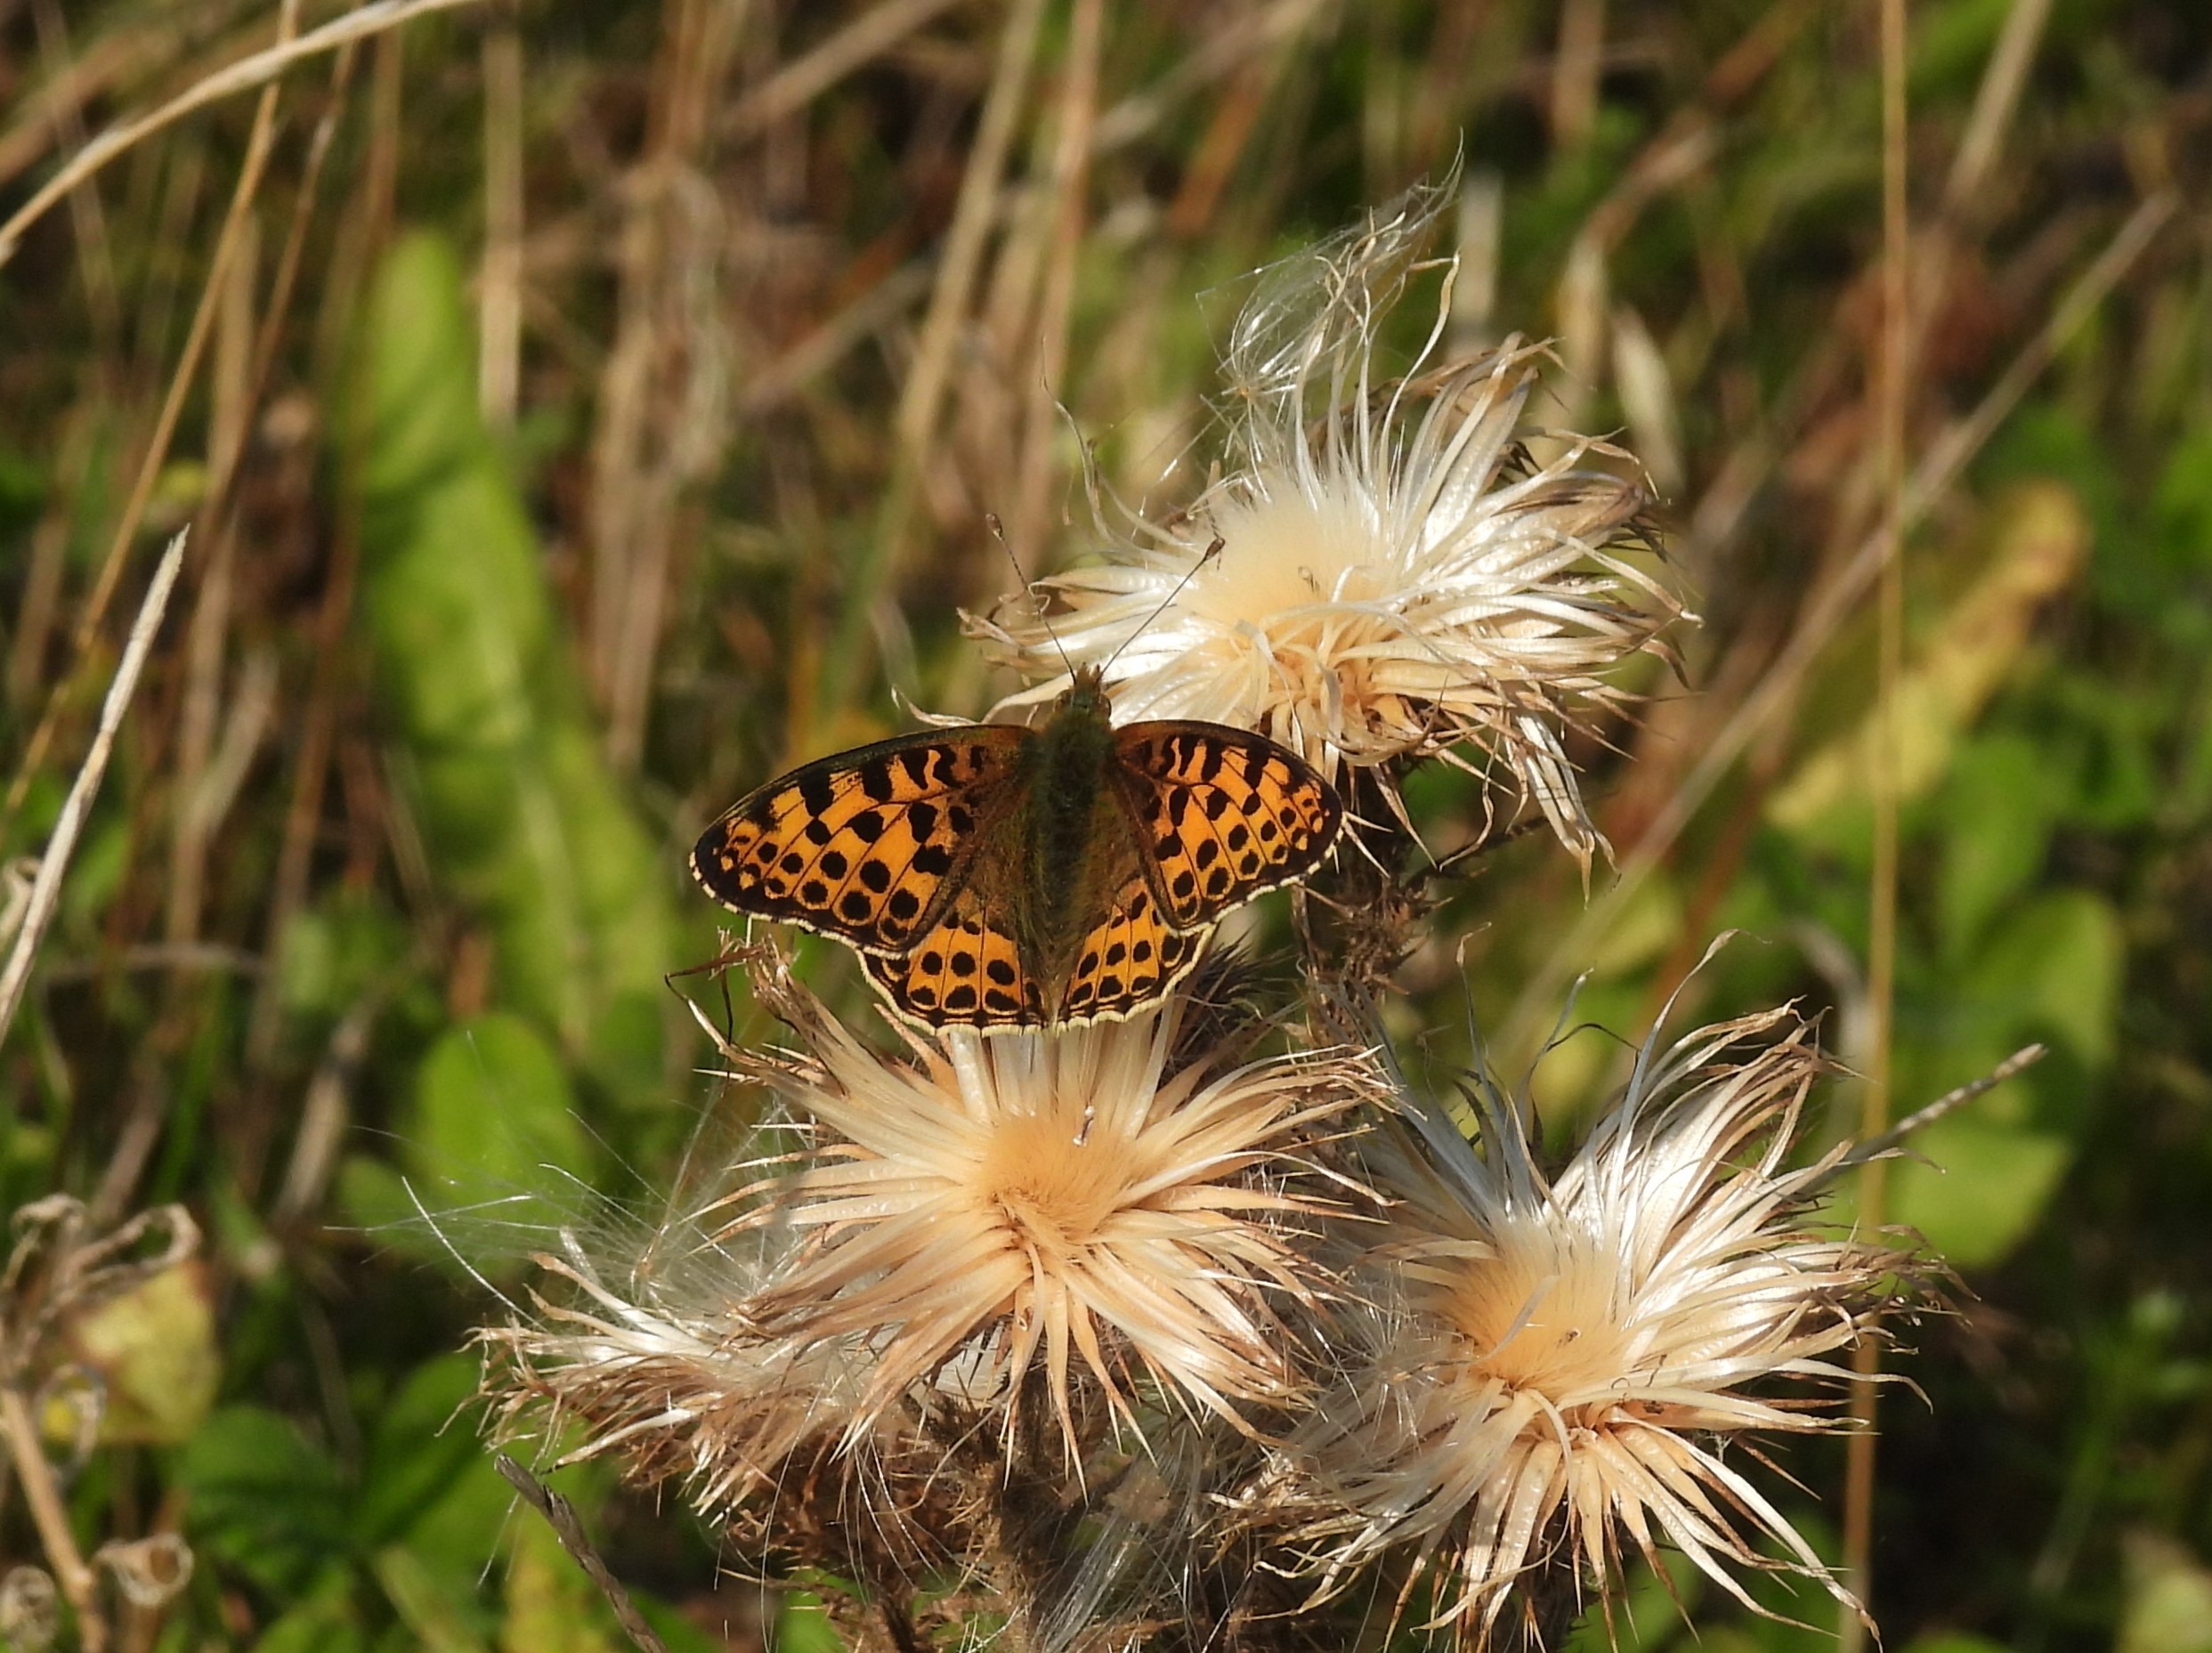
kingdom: Animalia
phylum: Arthropoda
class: Insecta
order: Lepidoptera
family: Nymphalidae
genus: Issoria
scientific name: Issoria lathonia
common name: Storplettet perlemorsommerfugl
